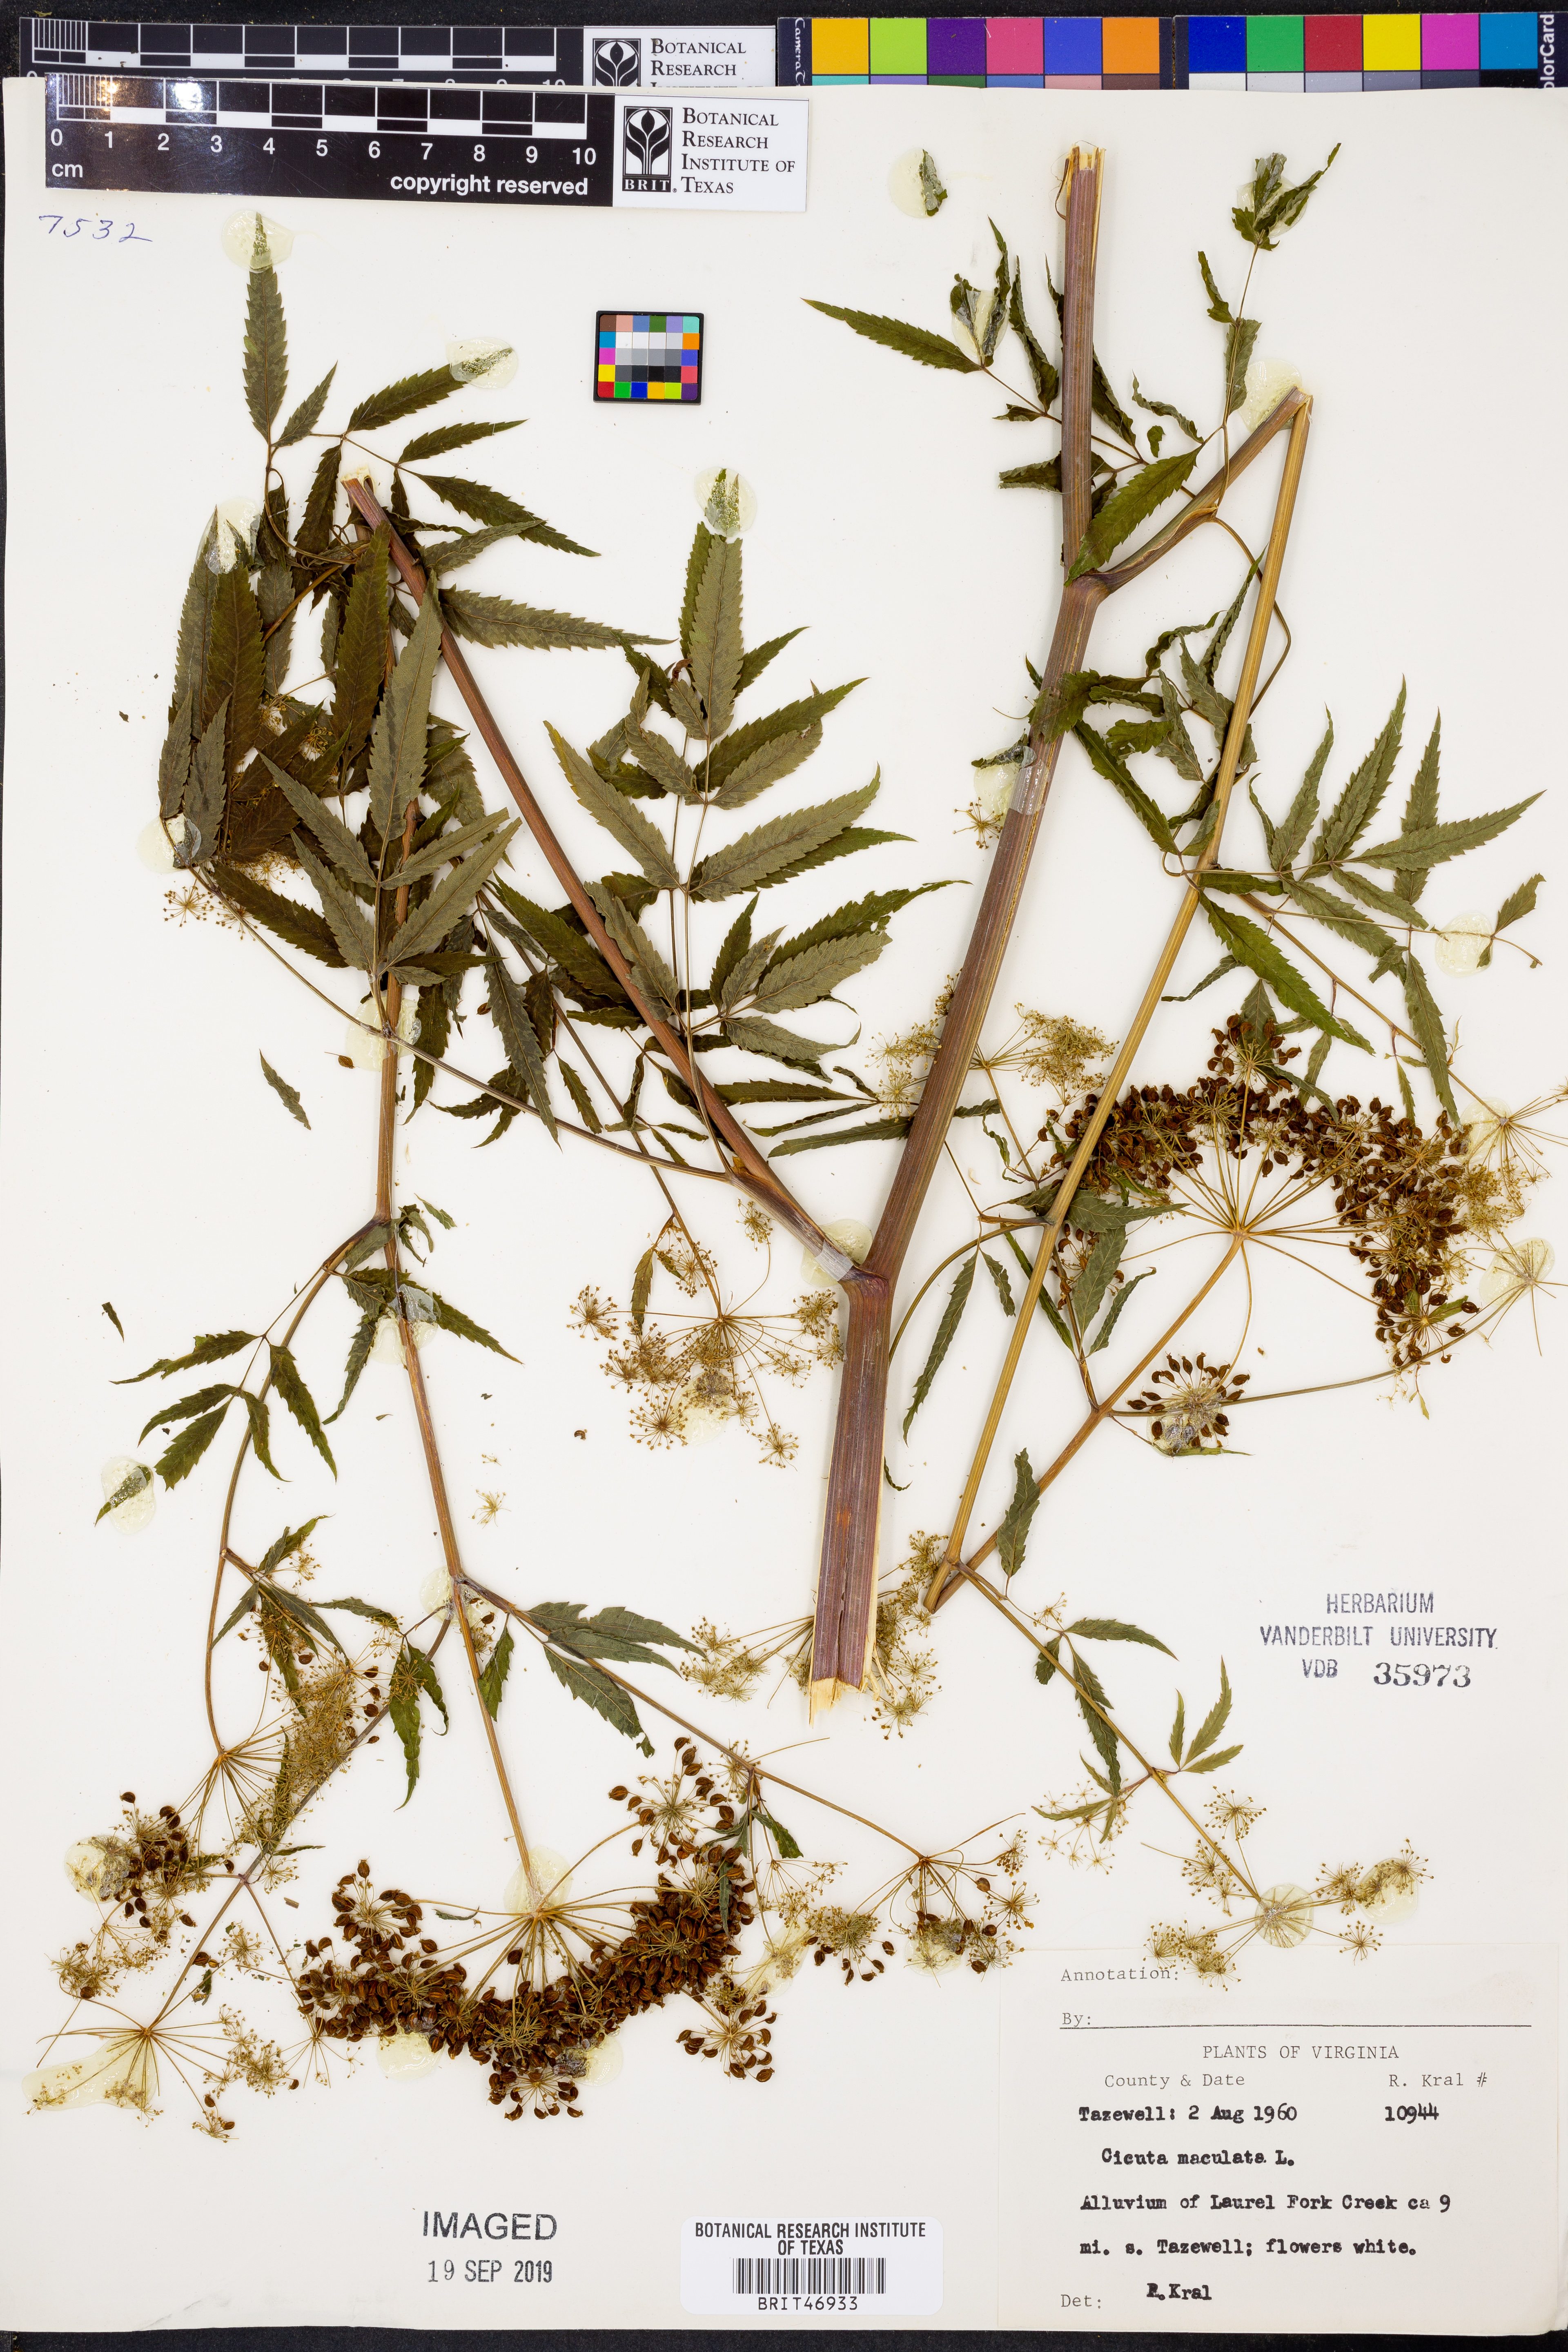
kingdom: Plantae
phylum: Tracheophyta
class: Magnoliopsida
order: Apiales
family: Apiaceae
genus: Cicuta
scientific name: Cicuta maculata
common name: Spotted cowbane
